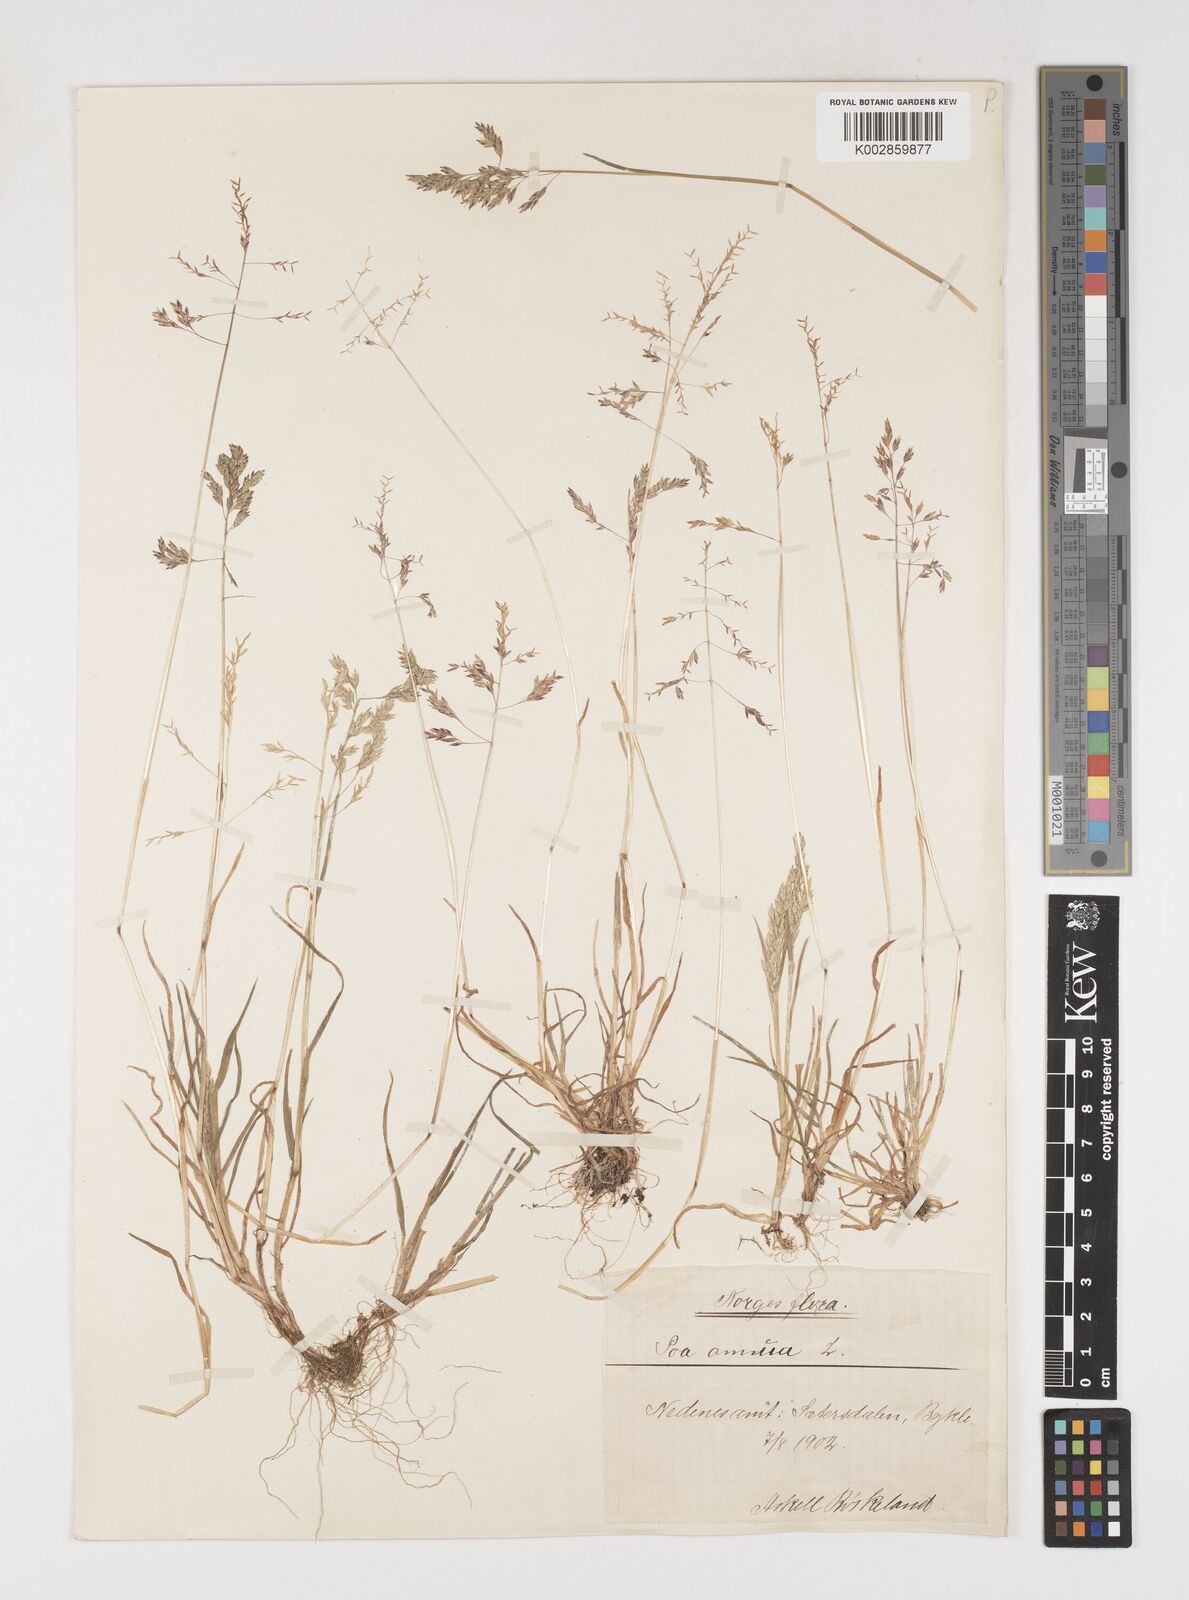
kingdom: Plantae
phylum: Tracheophyta
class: Liliopsida
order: Poales
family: Poaceae
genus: Poa
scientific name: Poa annua
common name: Annual bluegrass
